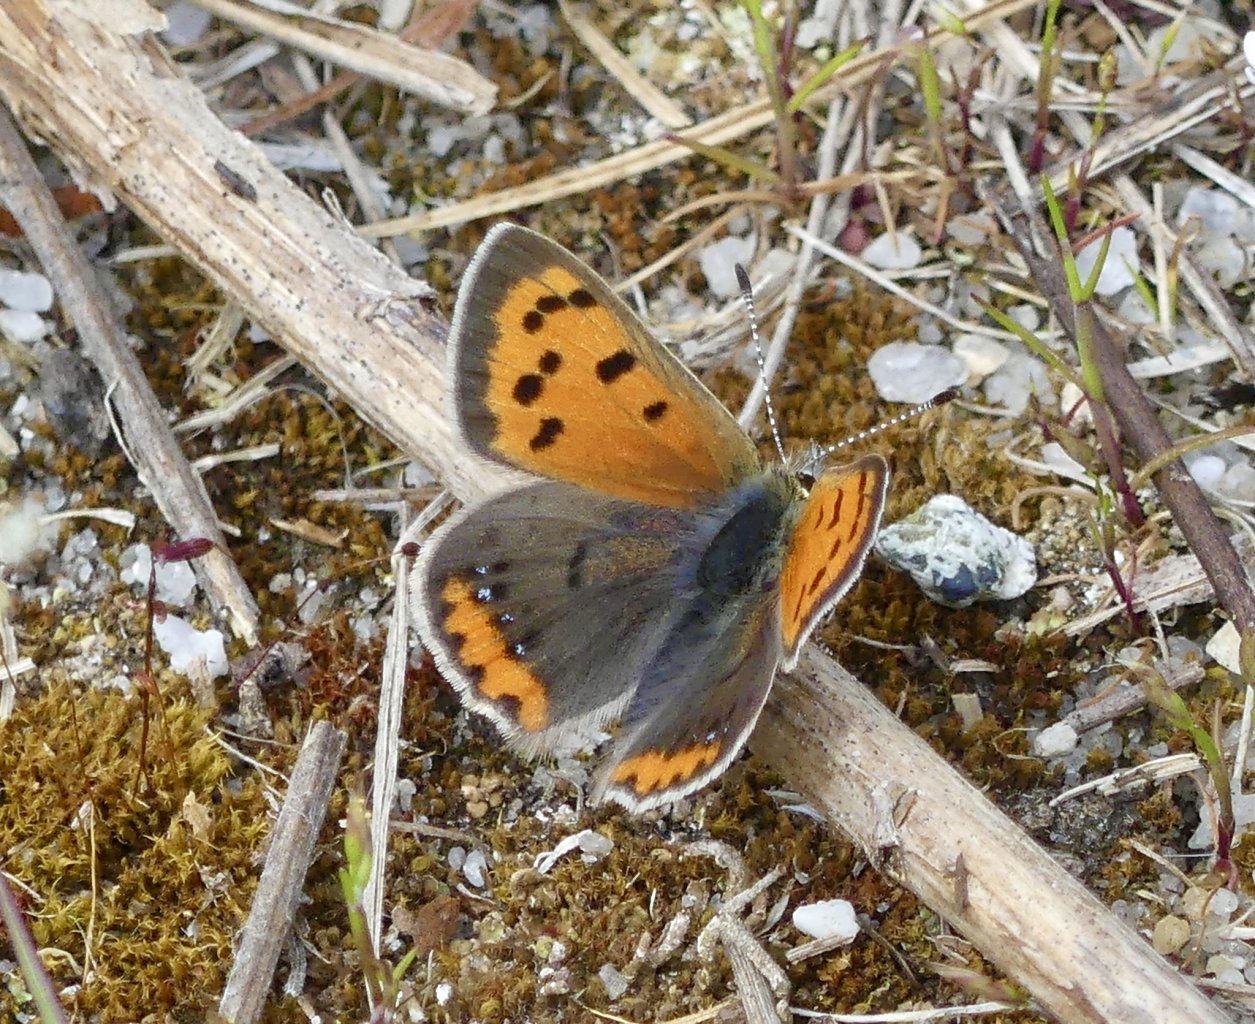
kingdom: Animalia
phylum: Arthropoda
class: Insecta
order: Lepidoptera
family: Lycaenidae
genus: Lycaena
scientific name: Lycaena phlaeas
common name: American Copper
